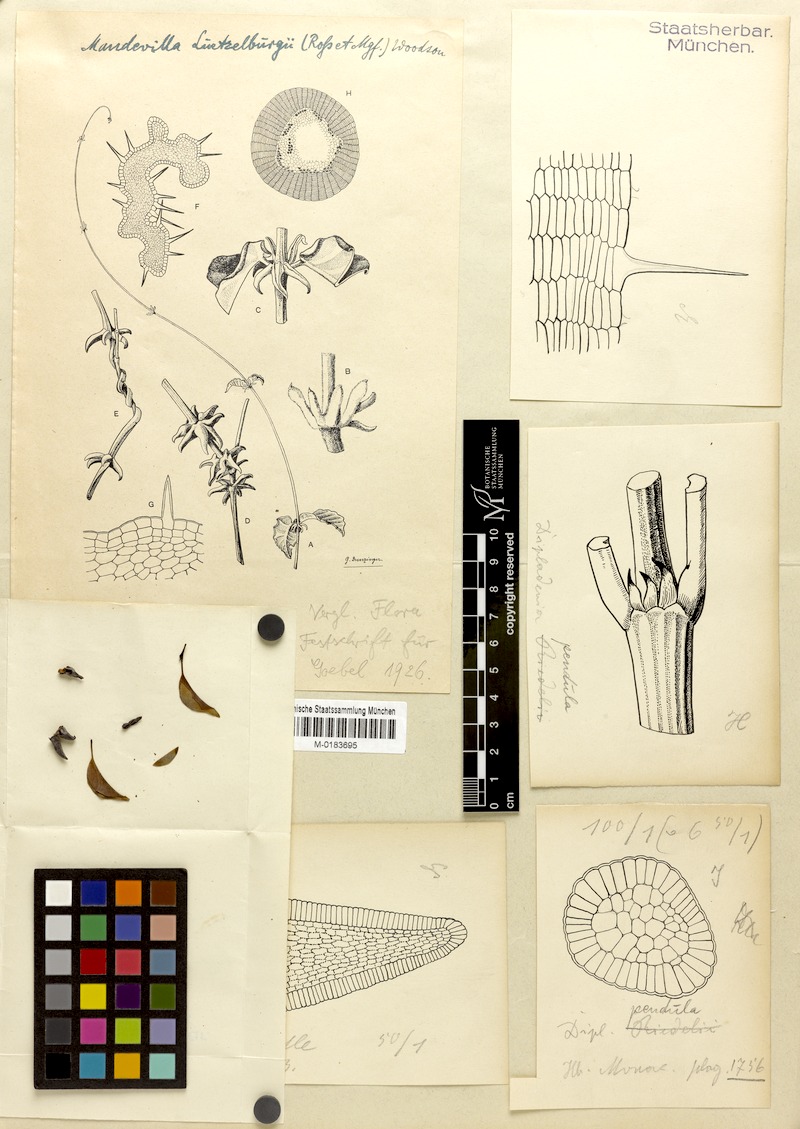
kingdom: Plantae
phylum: Tracheophyta
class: Magnoliopsida
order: Gentianales
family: Apocynaceae
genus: Mandevilla
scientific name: Mandevilla luetzelburgii
